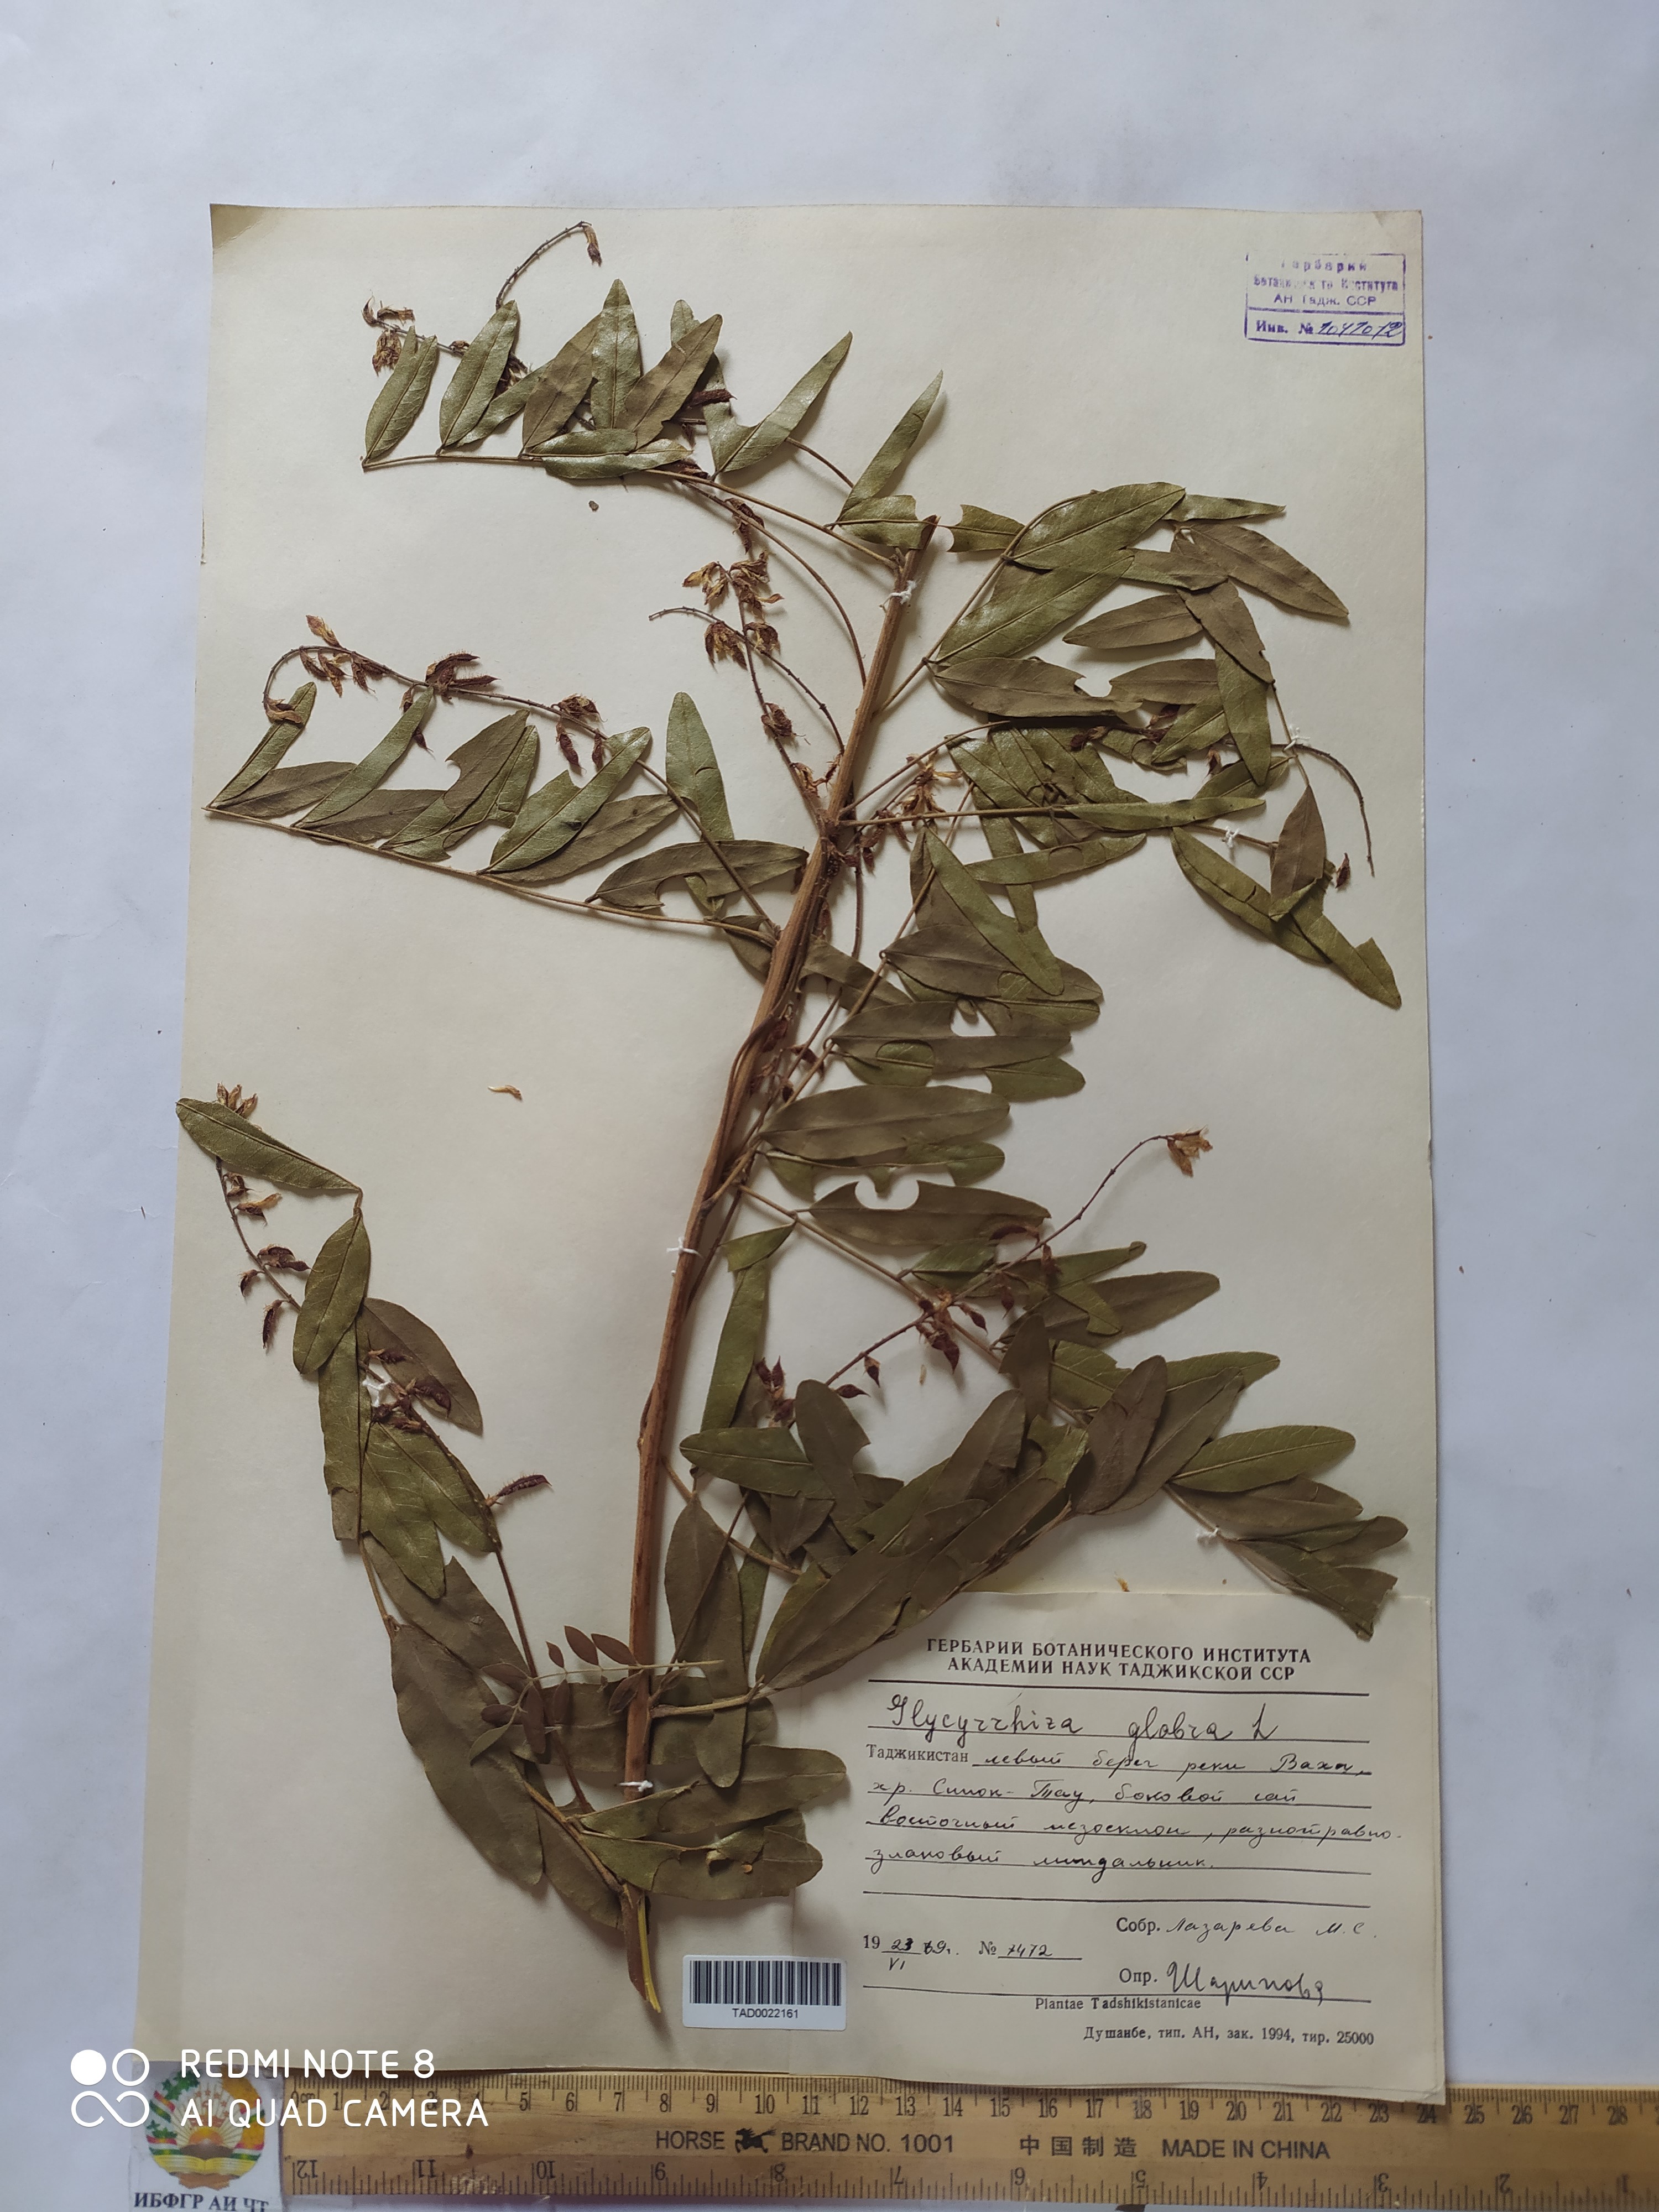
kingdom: Plantae
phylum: Tracheophyta
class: Magnoliopsida
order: Fabales
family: Fabaceae
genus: Glycyrrhiza
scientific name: Glycyrrhiza glabra
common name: Liquorice
